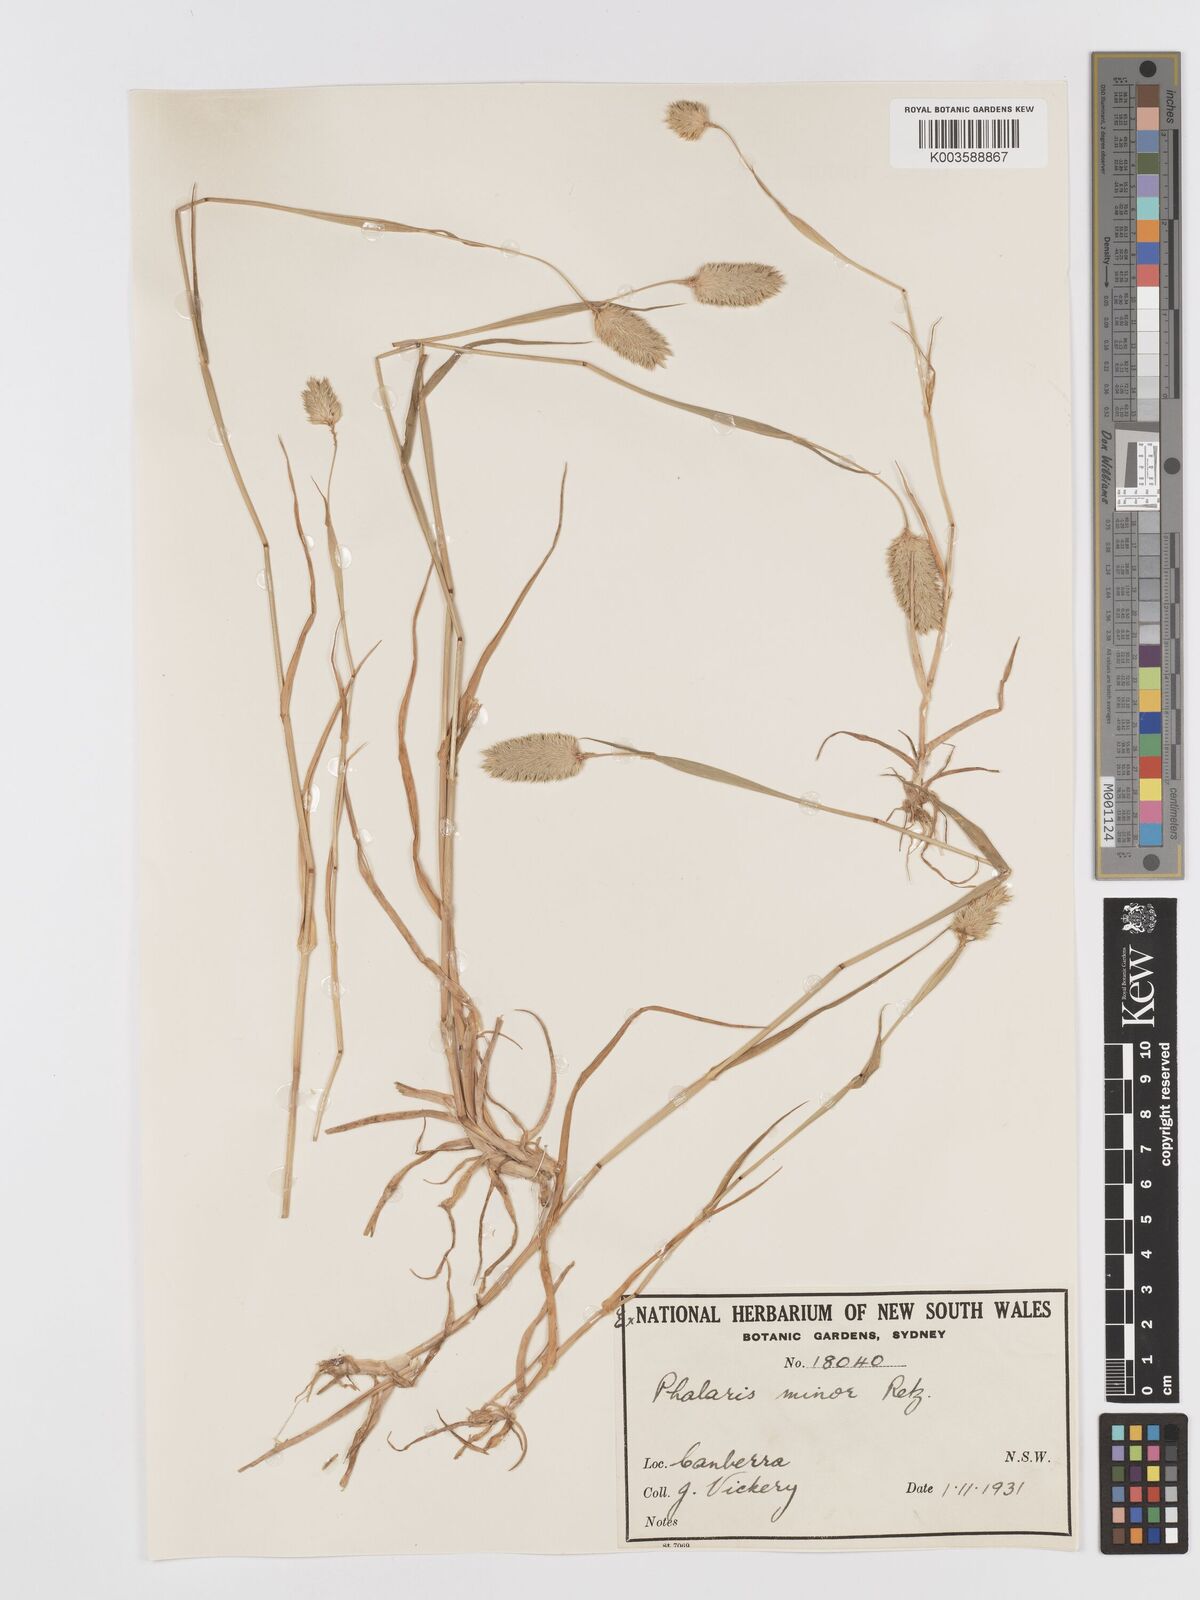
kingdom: Plantae
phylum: Tracheophyta
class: Liliopsida
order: Poales
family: Poaceae
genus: Phalaris
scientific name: Phalaris minor
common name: Littleseed canarygrass
